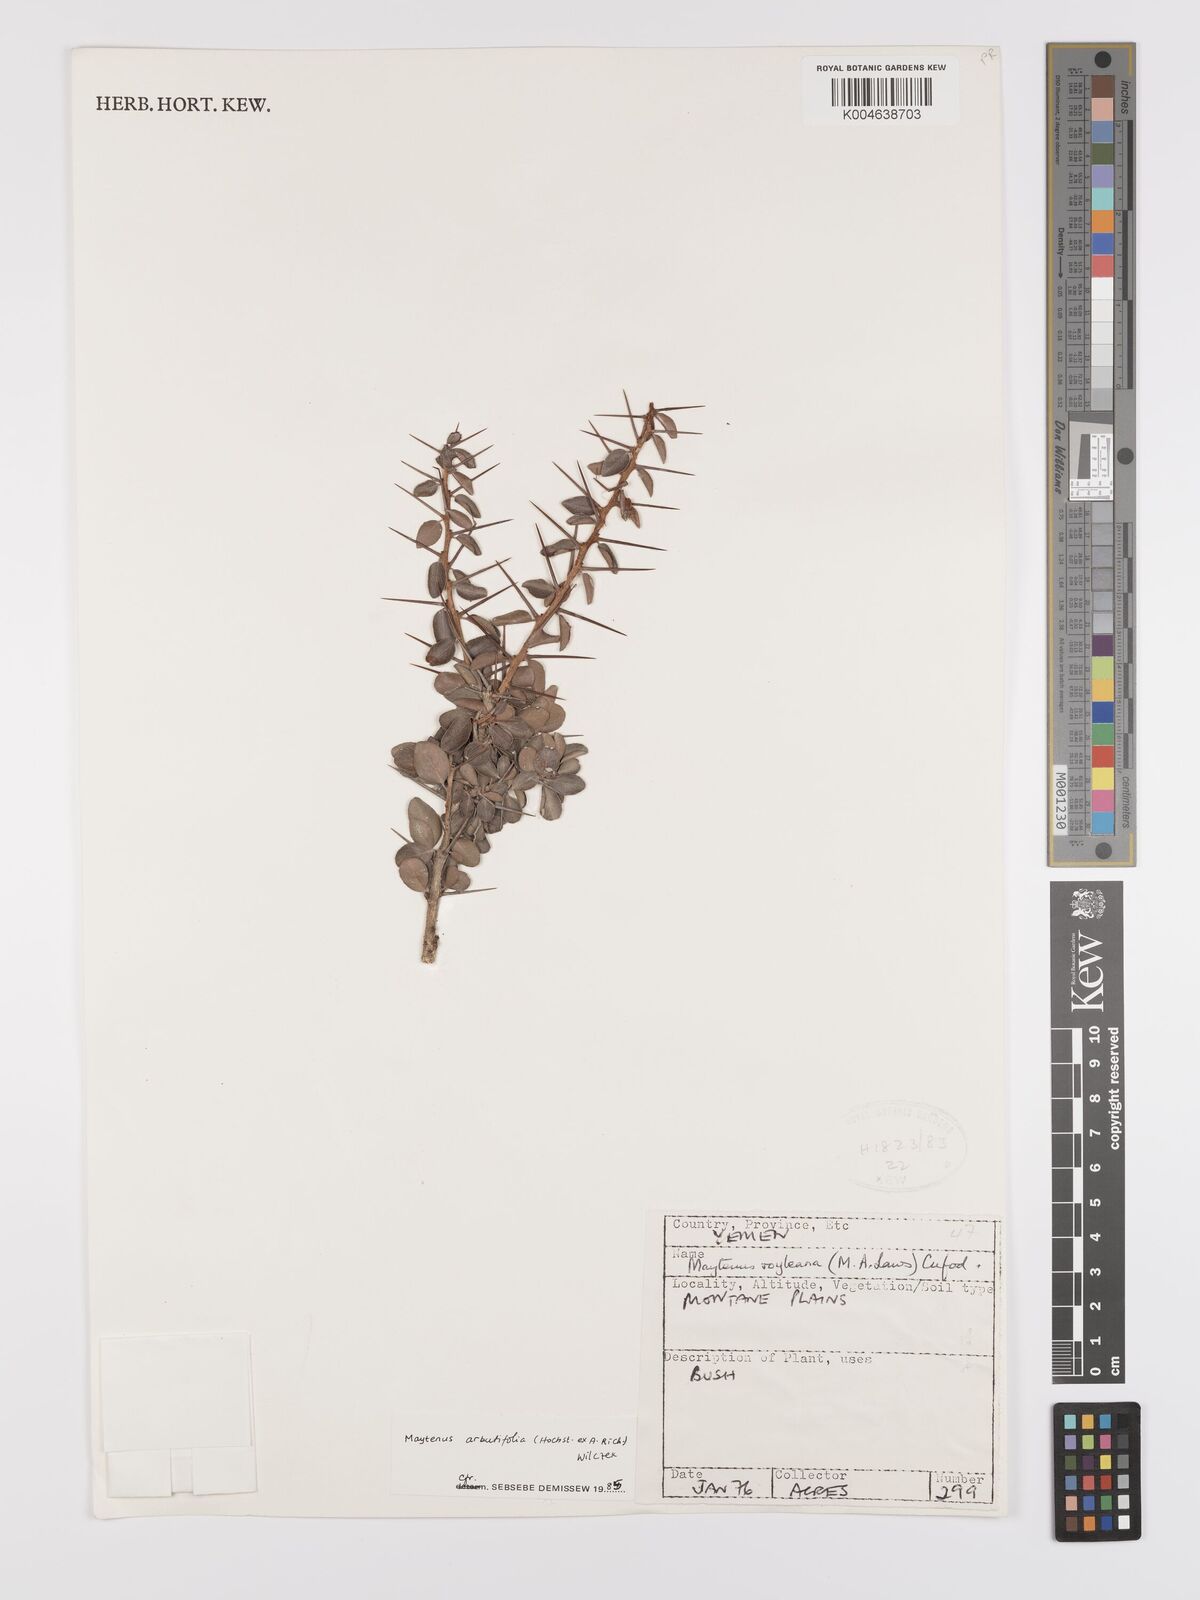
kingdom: Plantae
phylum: Tracheophyta
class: Magnoliopsida
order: Celastrales
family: Celastraceae
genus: Gymnosporia
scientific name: Gymnosporia arbutifolia
